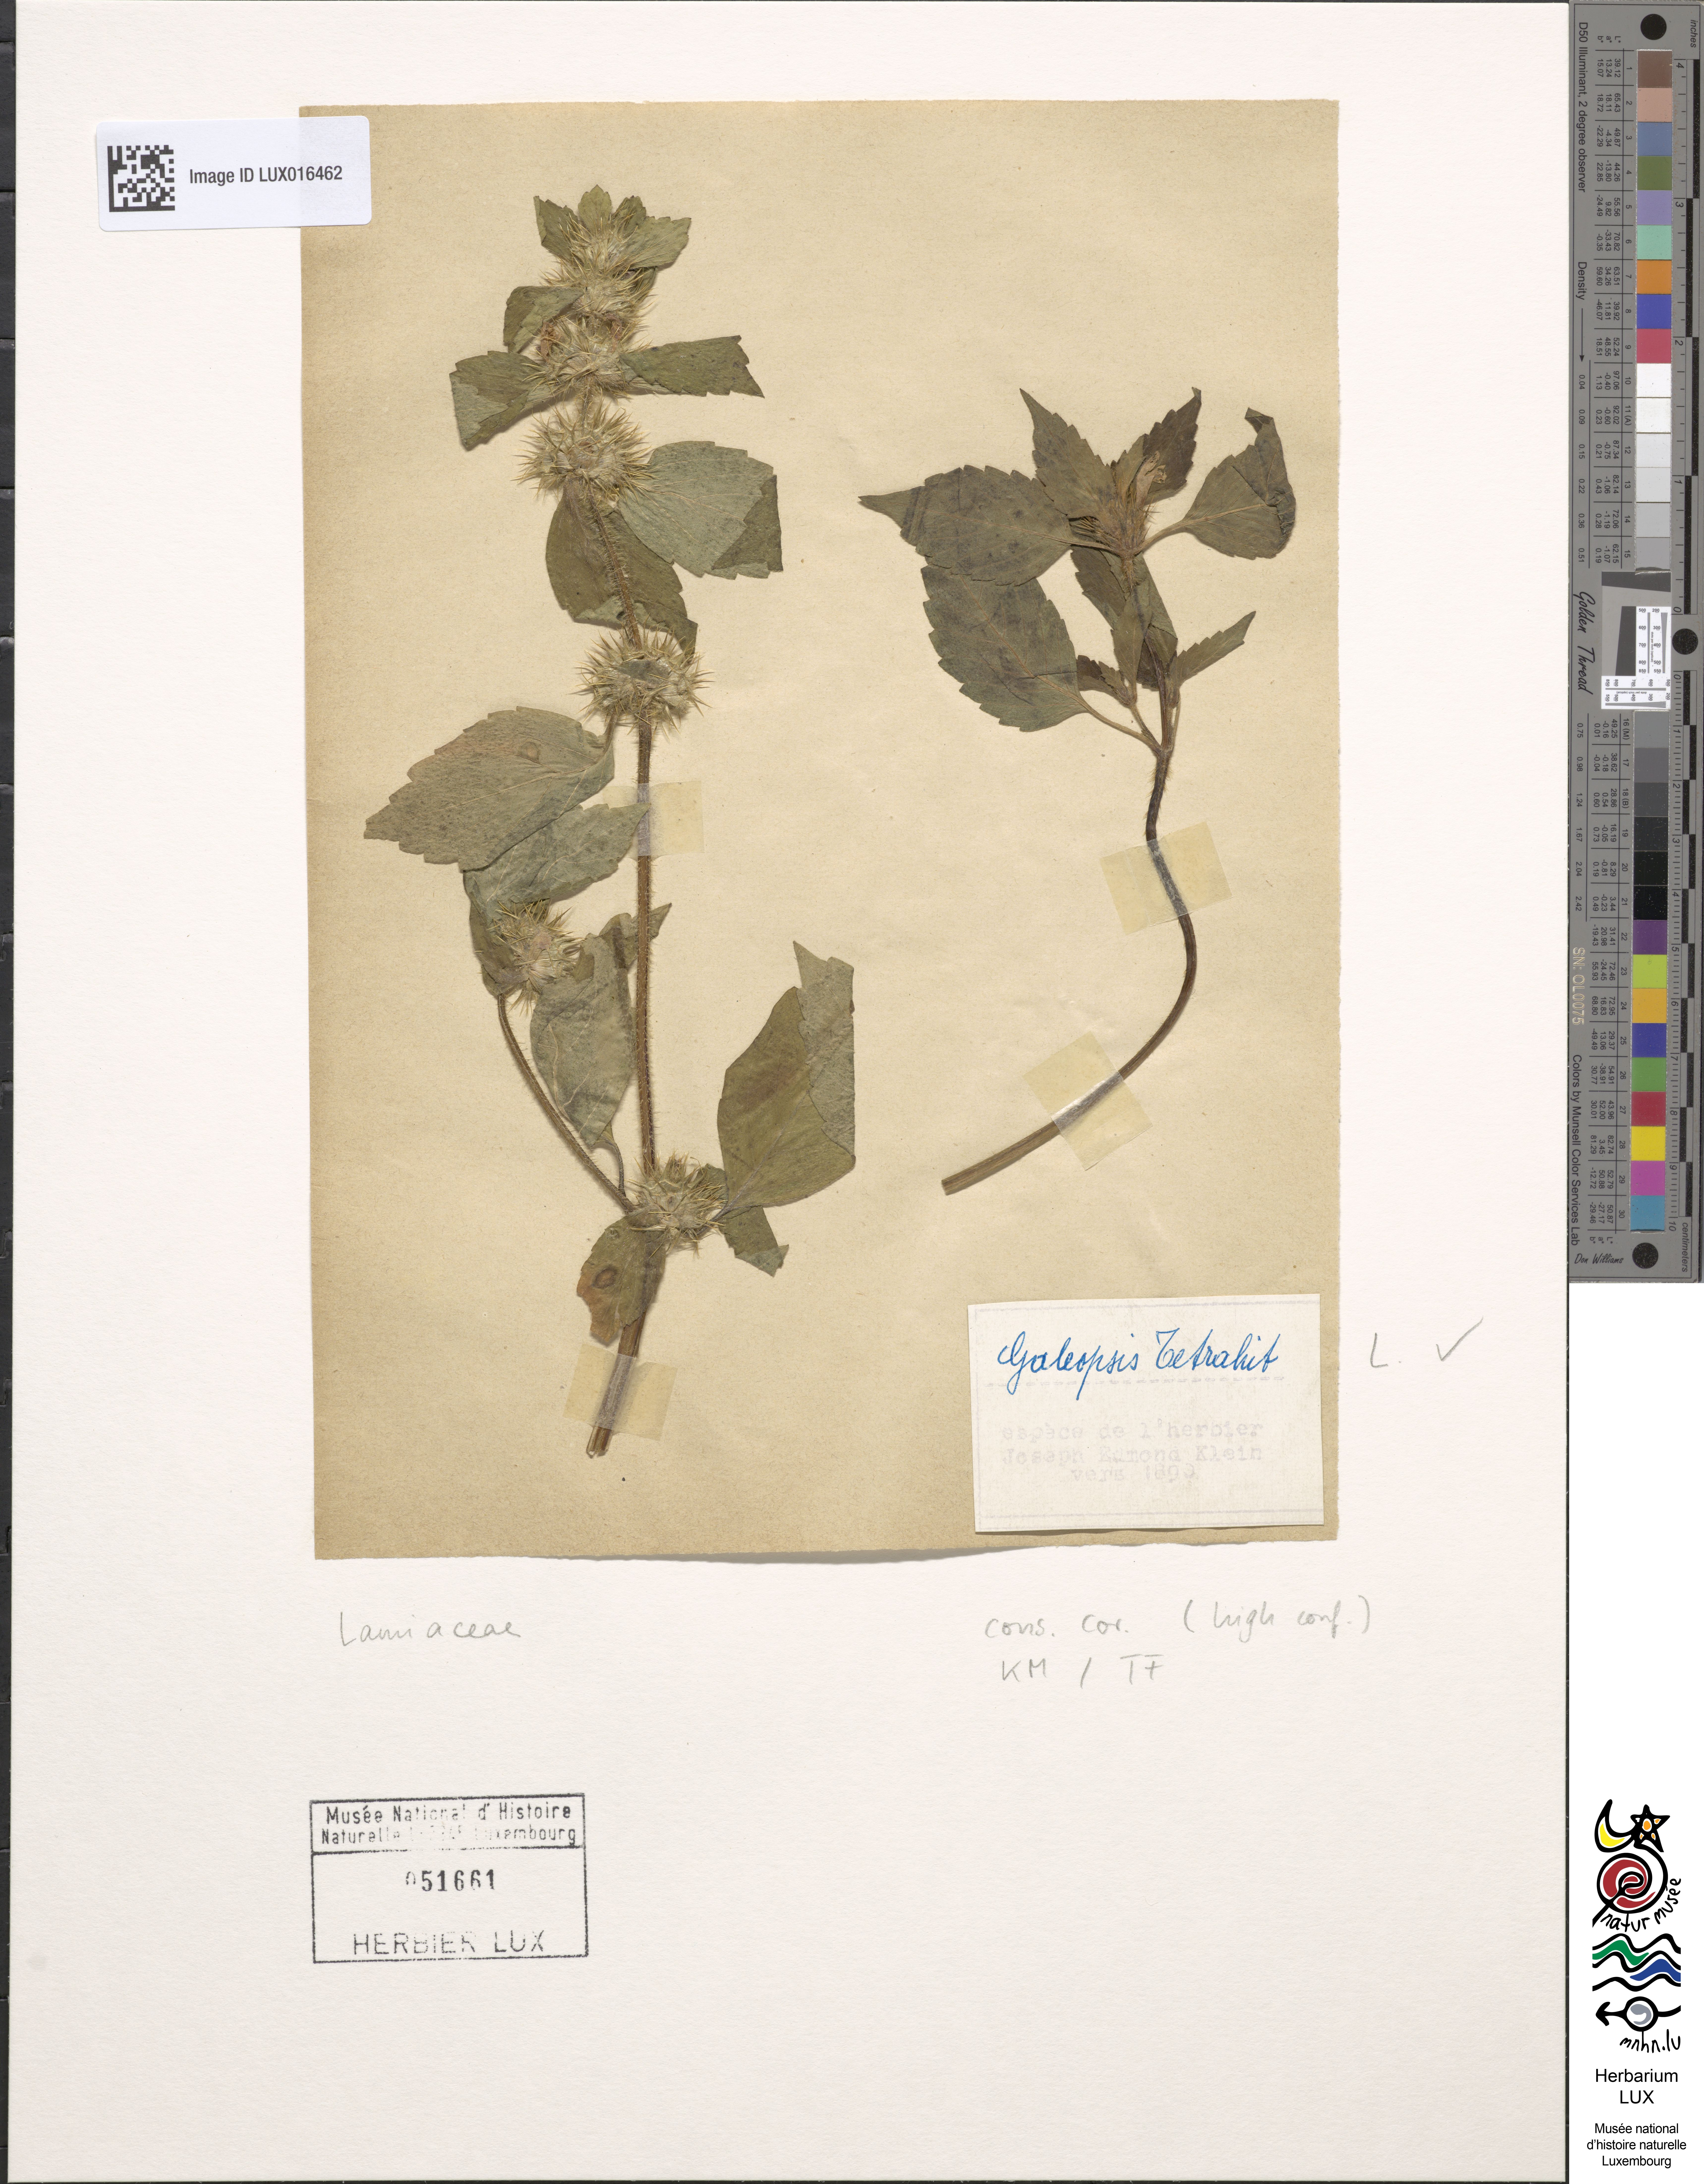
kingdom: Plantae
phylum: Tracheophyta
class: Magnoliopsida
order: Lamiales
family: Lamiaceae
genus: Galeopsis
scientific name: Galeopsis tetrahit
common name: Common hemp-nettle
